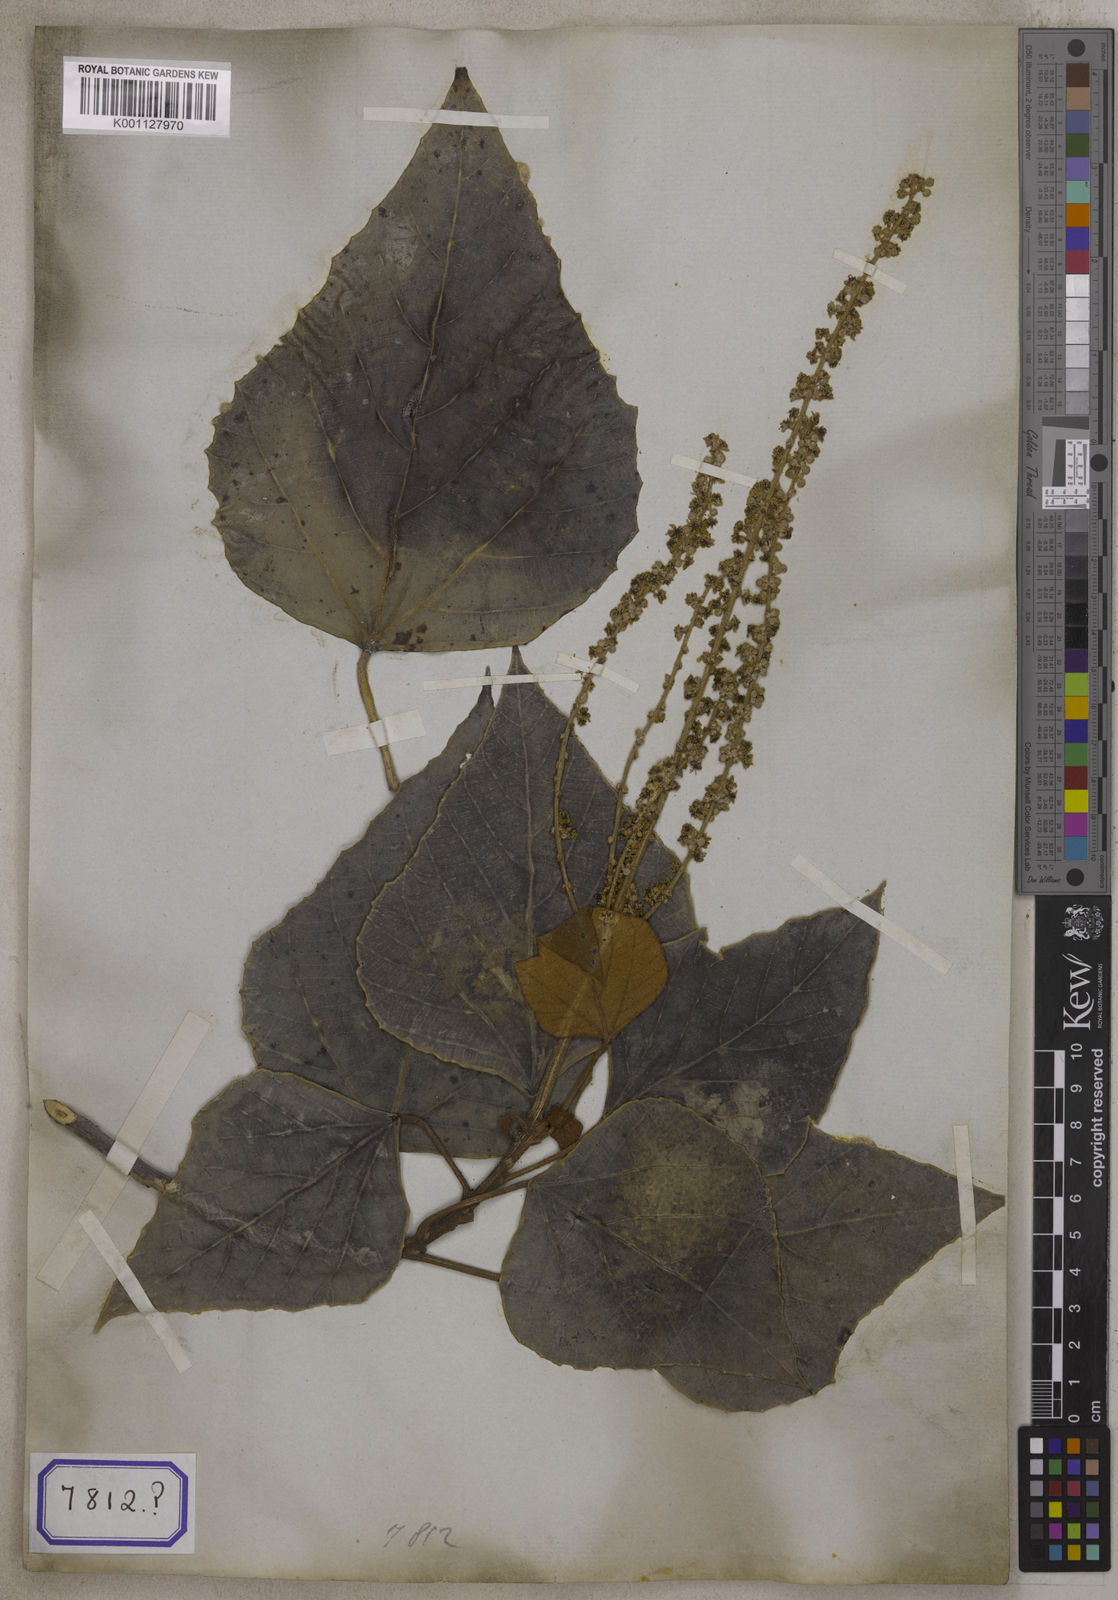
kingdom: Plantae
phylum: Tracheophyta
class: Magnoliopsida
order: Malpighiales
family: Euphorbiaceae
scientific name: Euphorbiaceae
